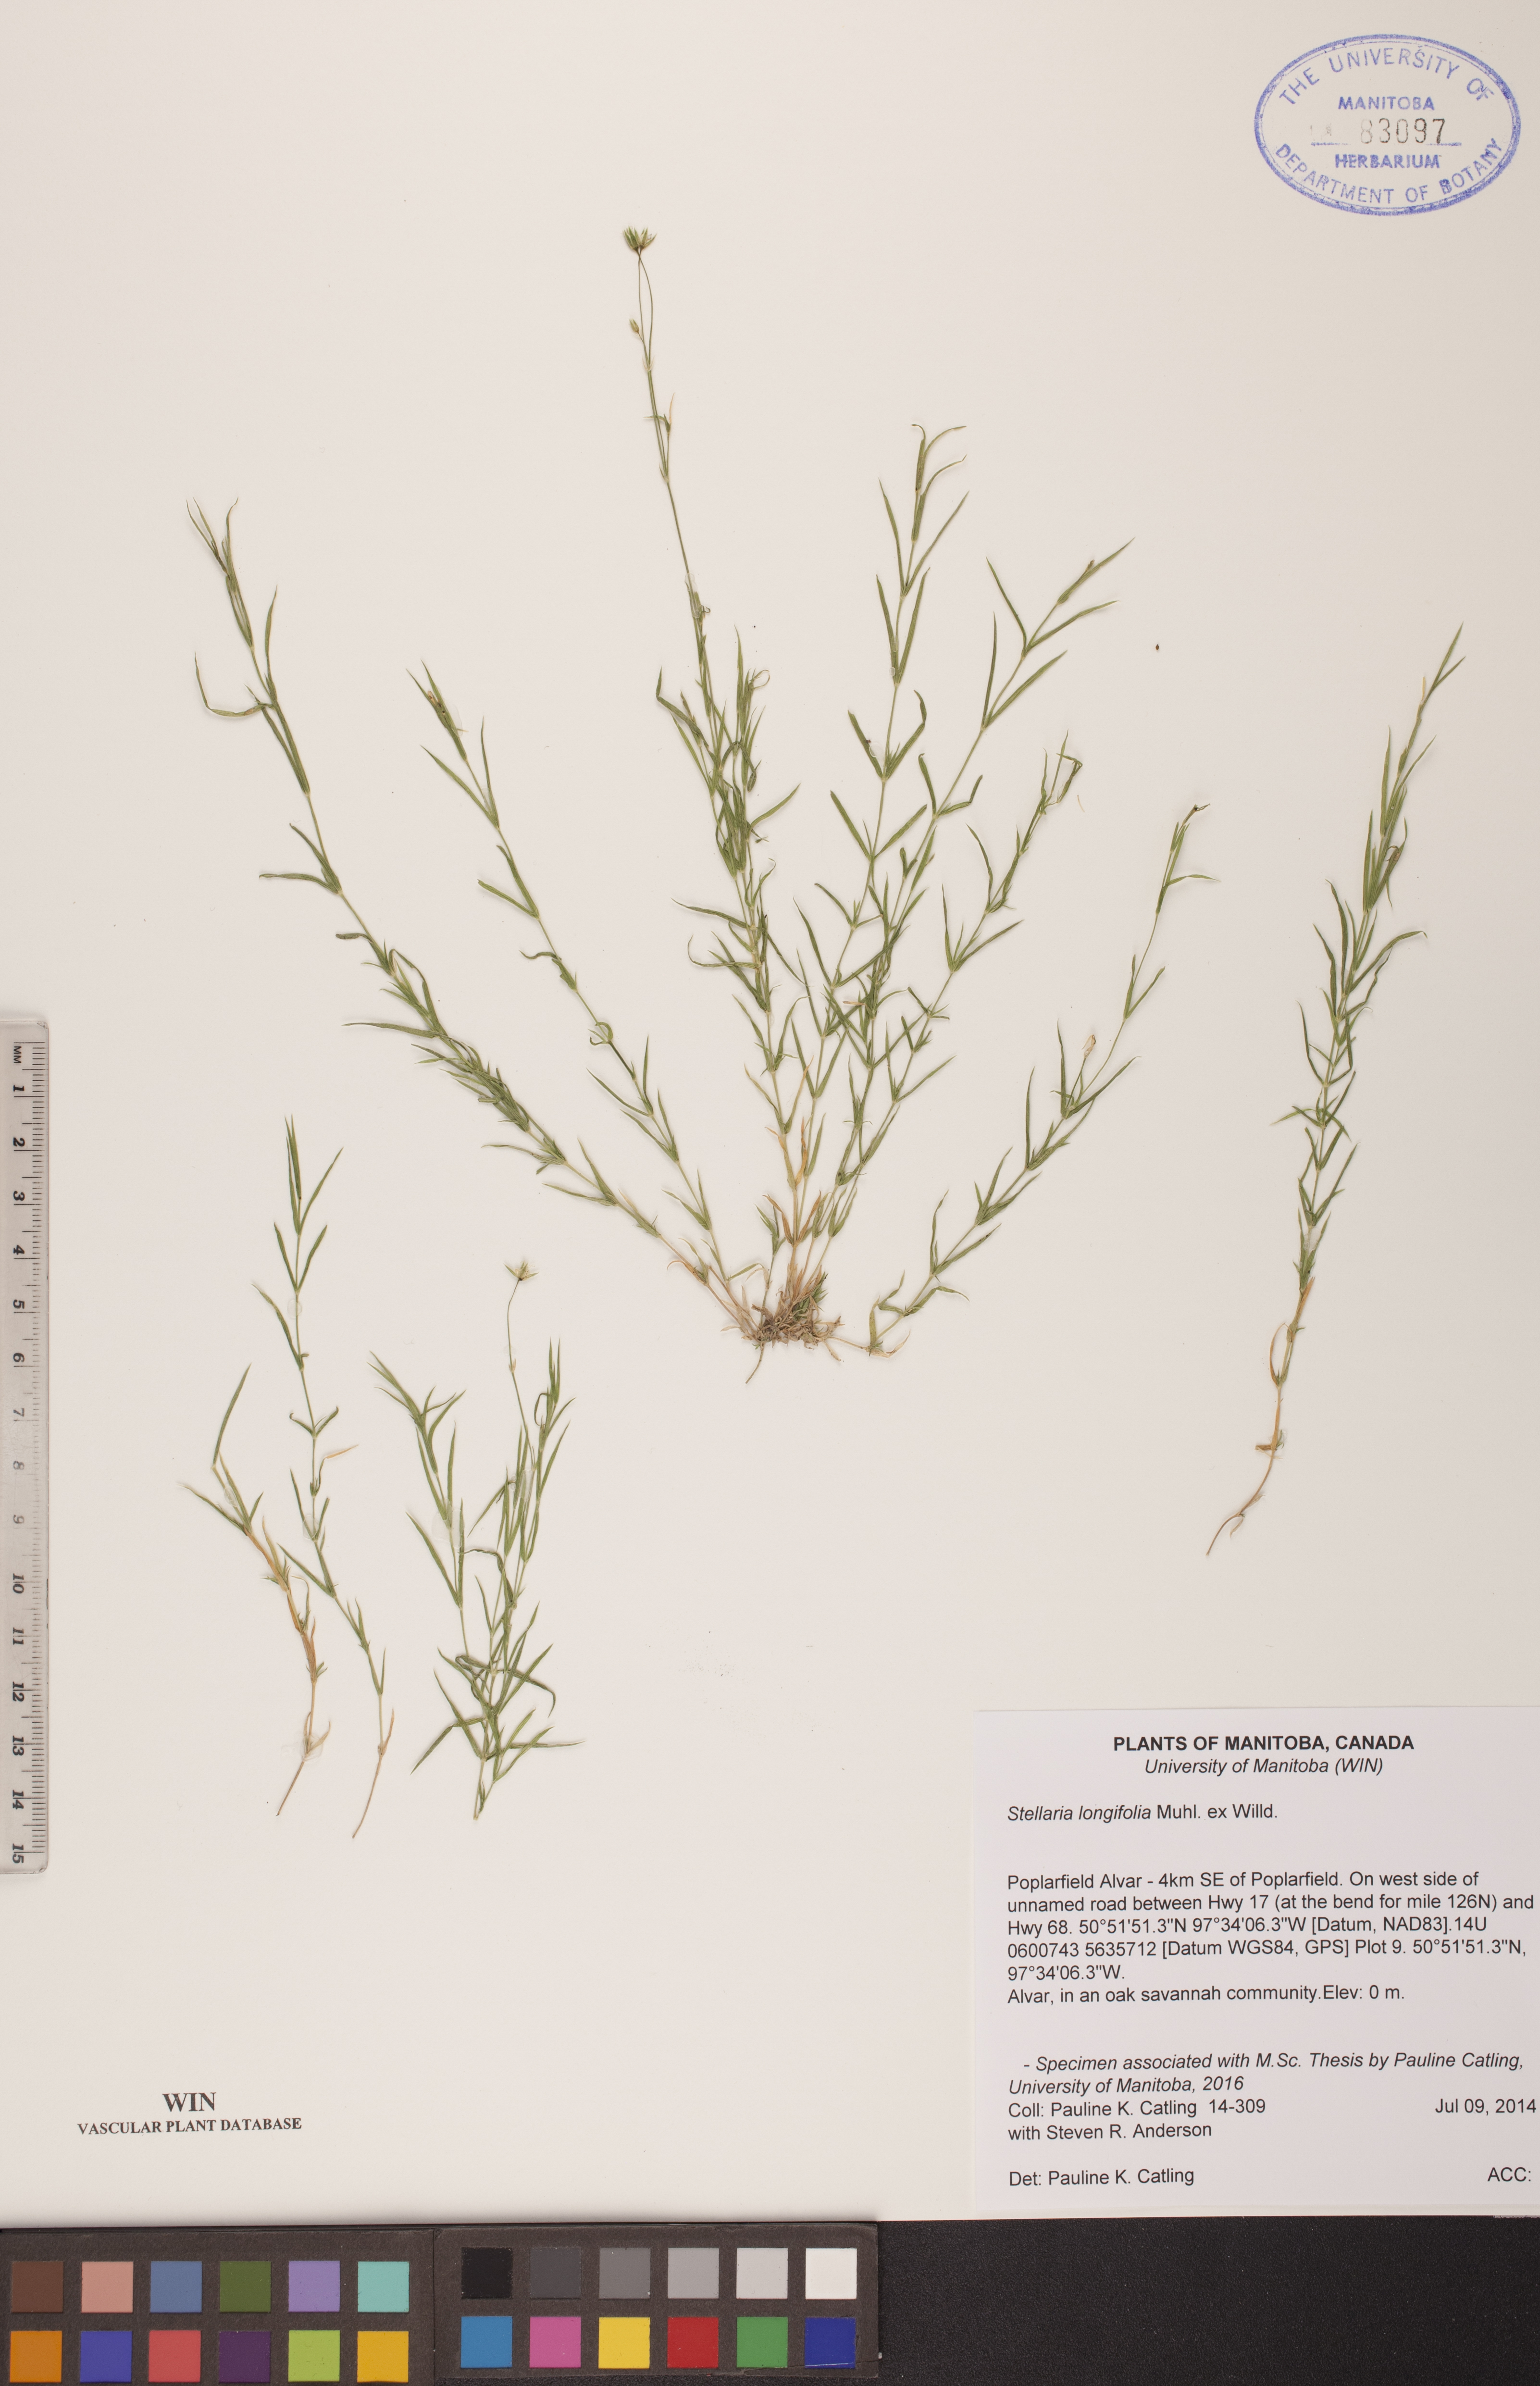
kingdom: Plantae
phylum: Tracheophyta
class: Magnoliopsida
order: Caryophyllales
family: Caryophyllaceae
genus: Stellaria
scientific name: Stellaria longifolia
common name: Long-leaved chickweed
